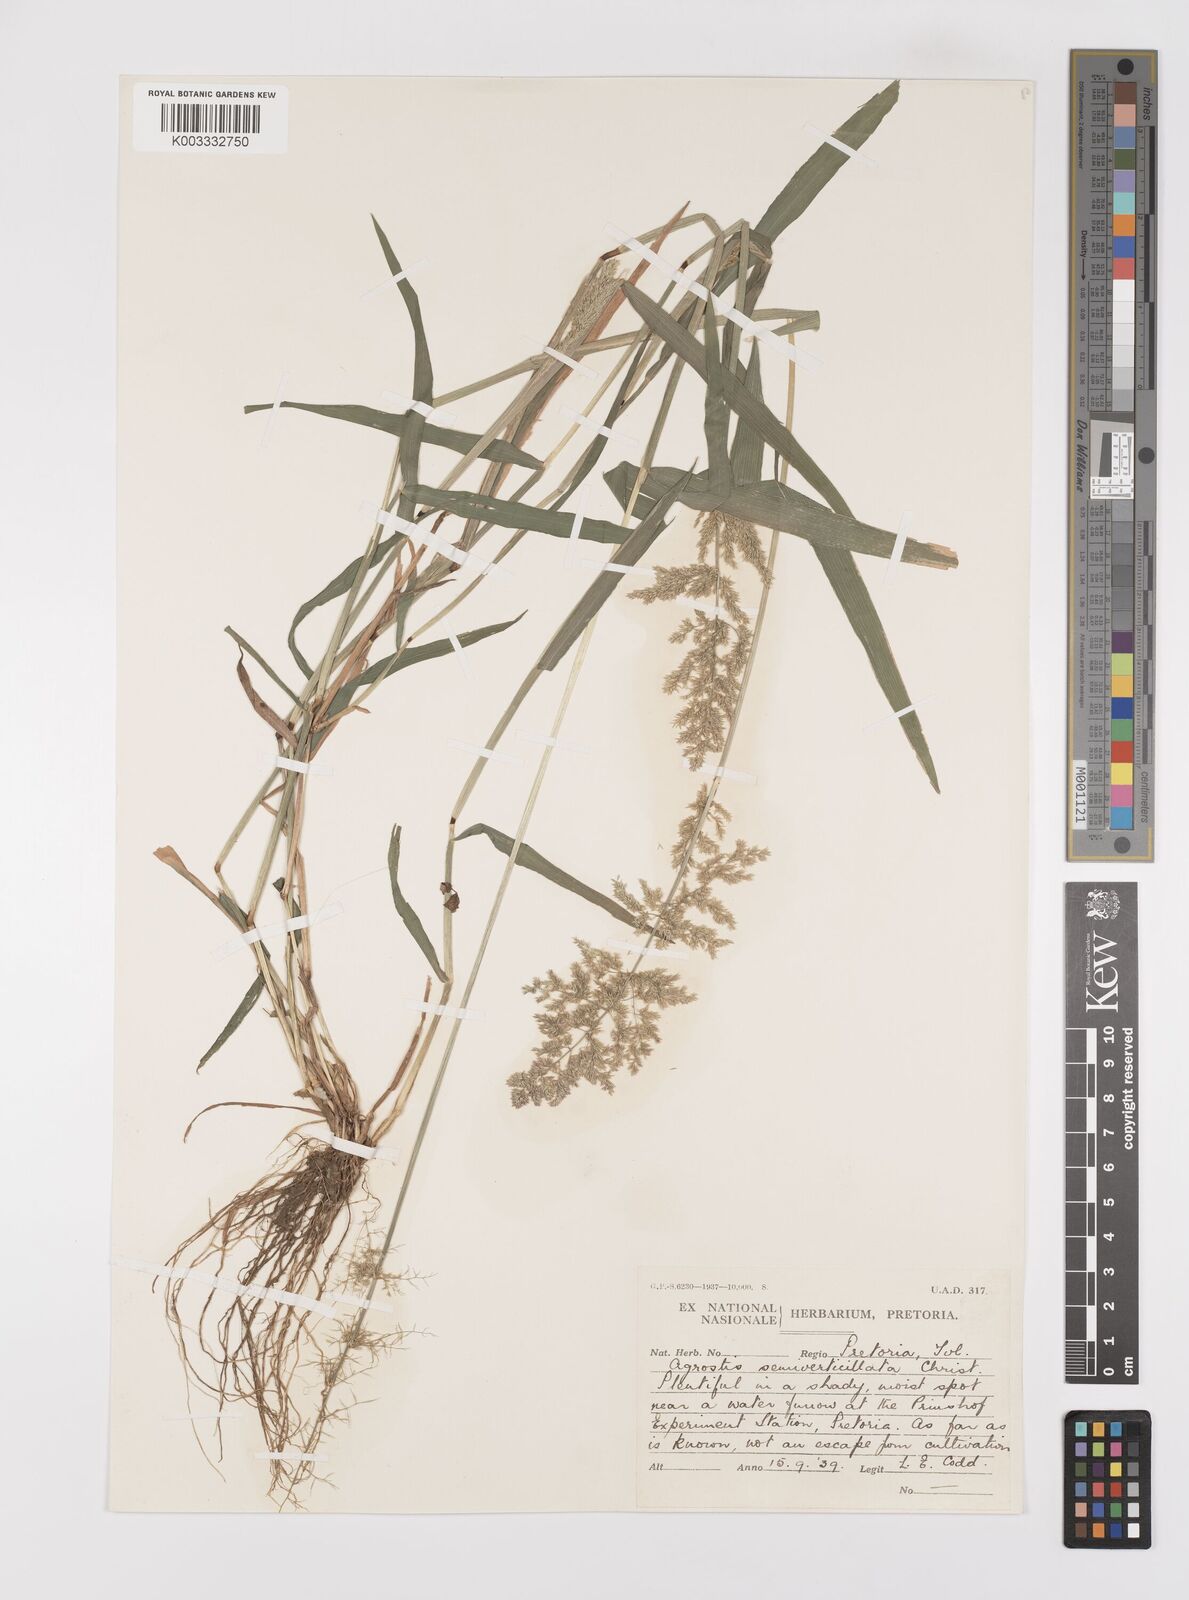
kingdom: Plantae
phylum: Tracheophyta
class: Liliopsida
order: Poales
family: Poaceae
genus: Polypogon
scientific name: Polypogon viridis
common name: Water bent
